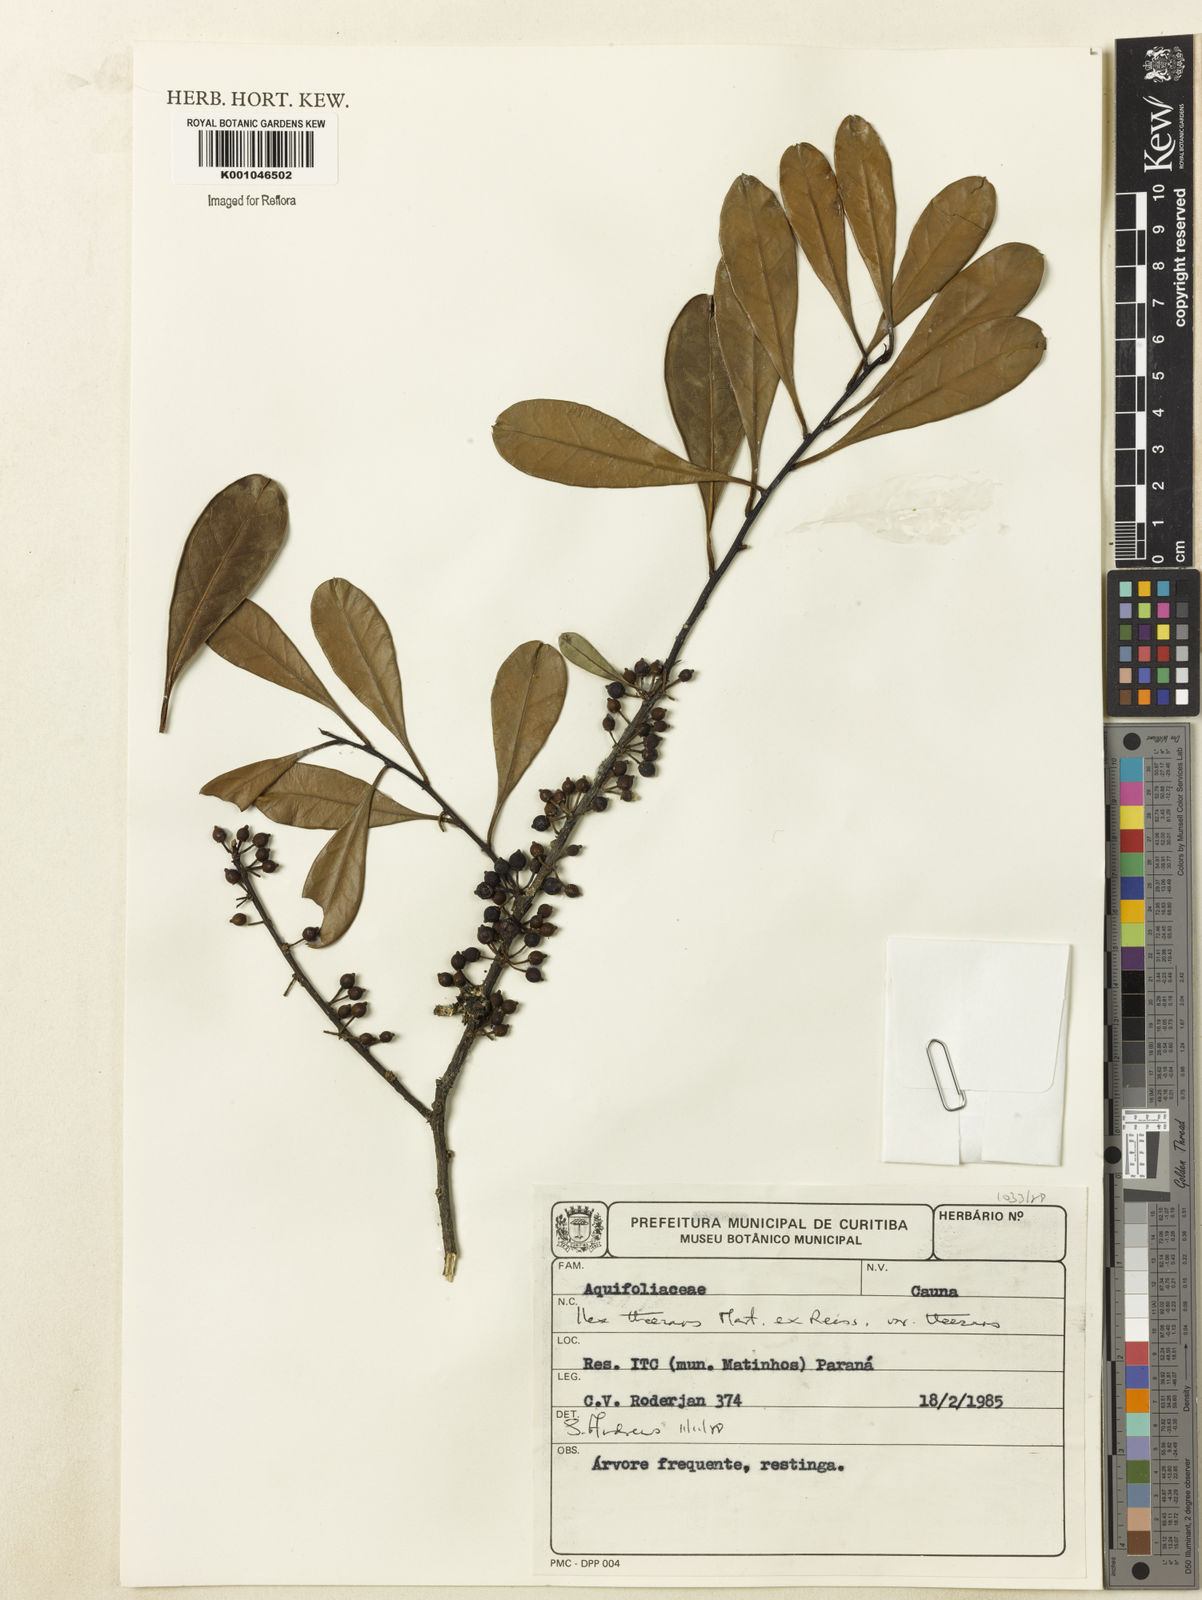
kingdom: Plantae
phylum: Tracheophyta
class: Magnoliopsida
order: Aquifoliales
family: Aquifoliaceae
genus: Ilex
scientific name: Ilex paraguariensis
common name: Paraguay tea
